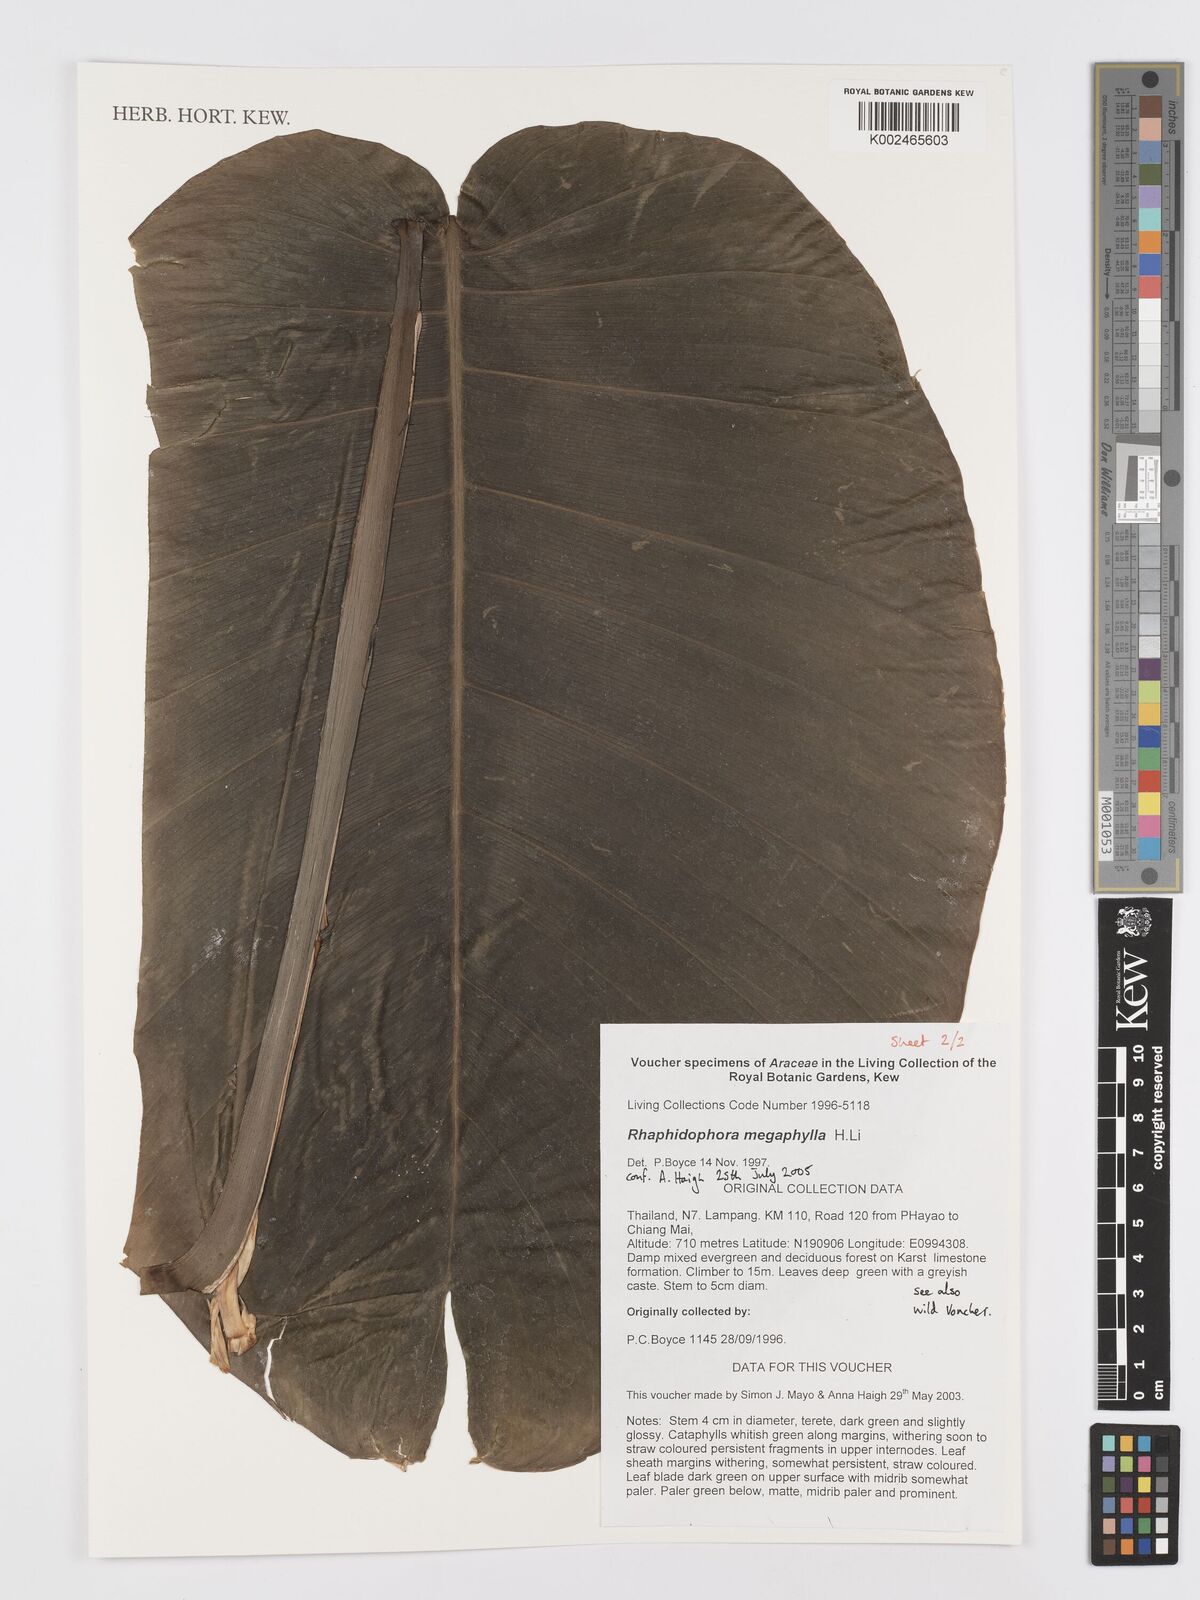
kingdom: Plantae
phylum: Tracheophyta
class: Liliopsida
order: Alismatales
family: Araceae
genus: Rhaphidophora
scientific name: Rhaphidophora megaphylla
